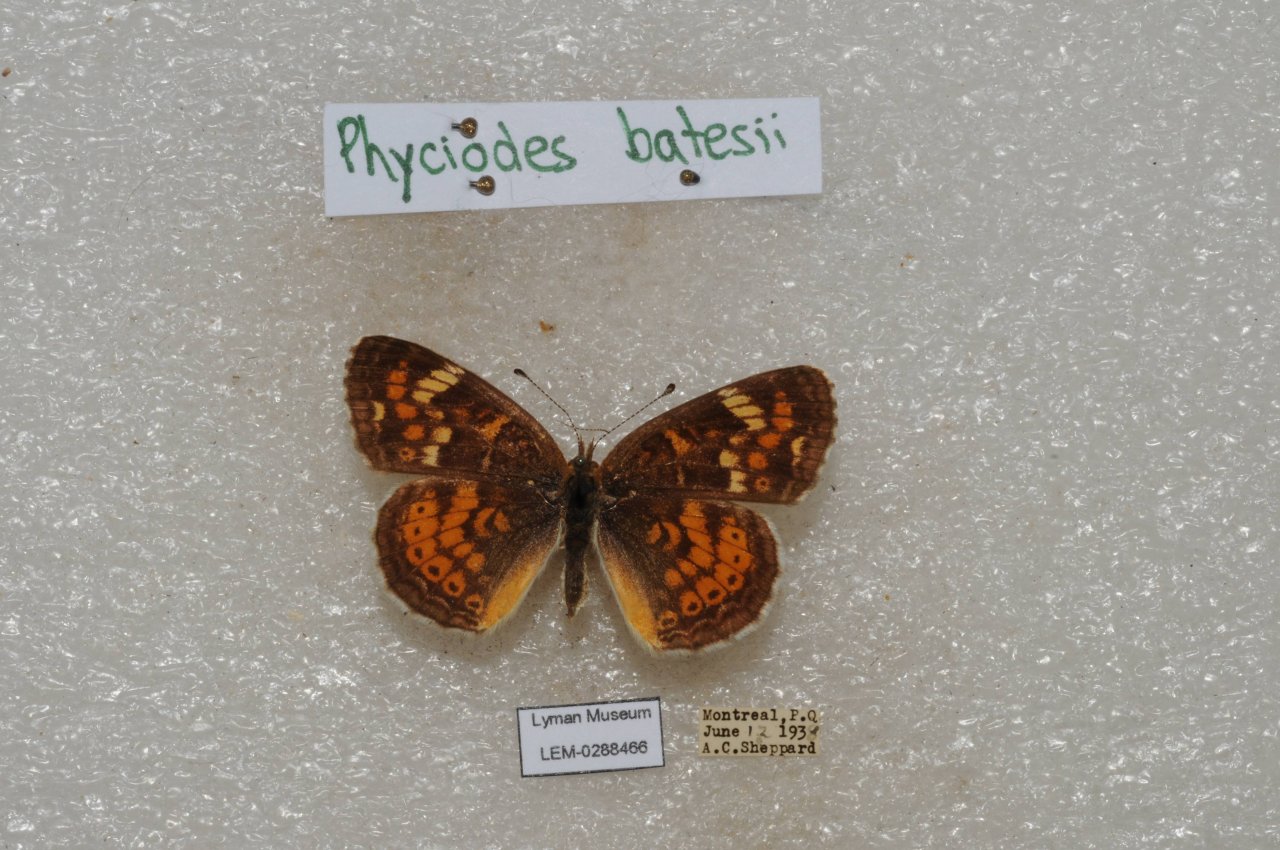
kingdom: Animalia
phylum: Arthropoda
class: Insecta
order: Lepidoptera
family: Nymphalidae
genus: Phyciodes
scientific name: Phyciodes batesii
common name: Tawny Crescent
